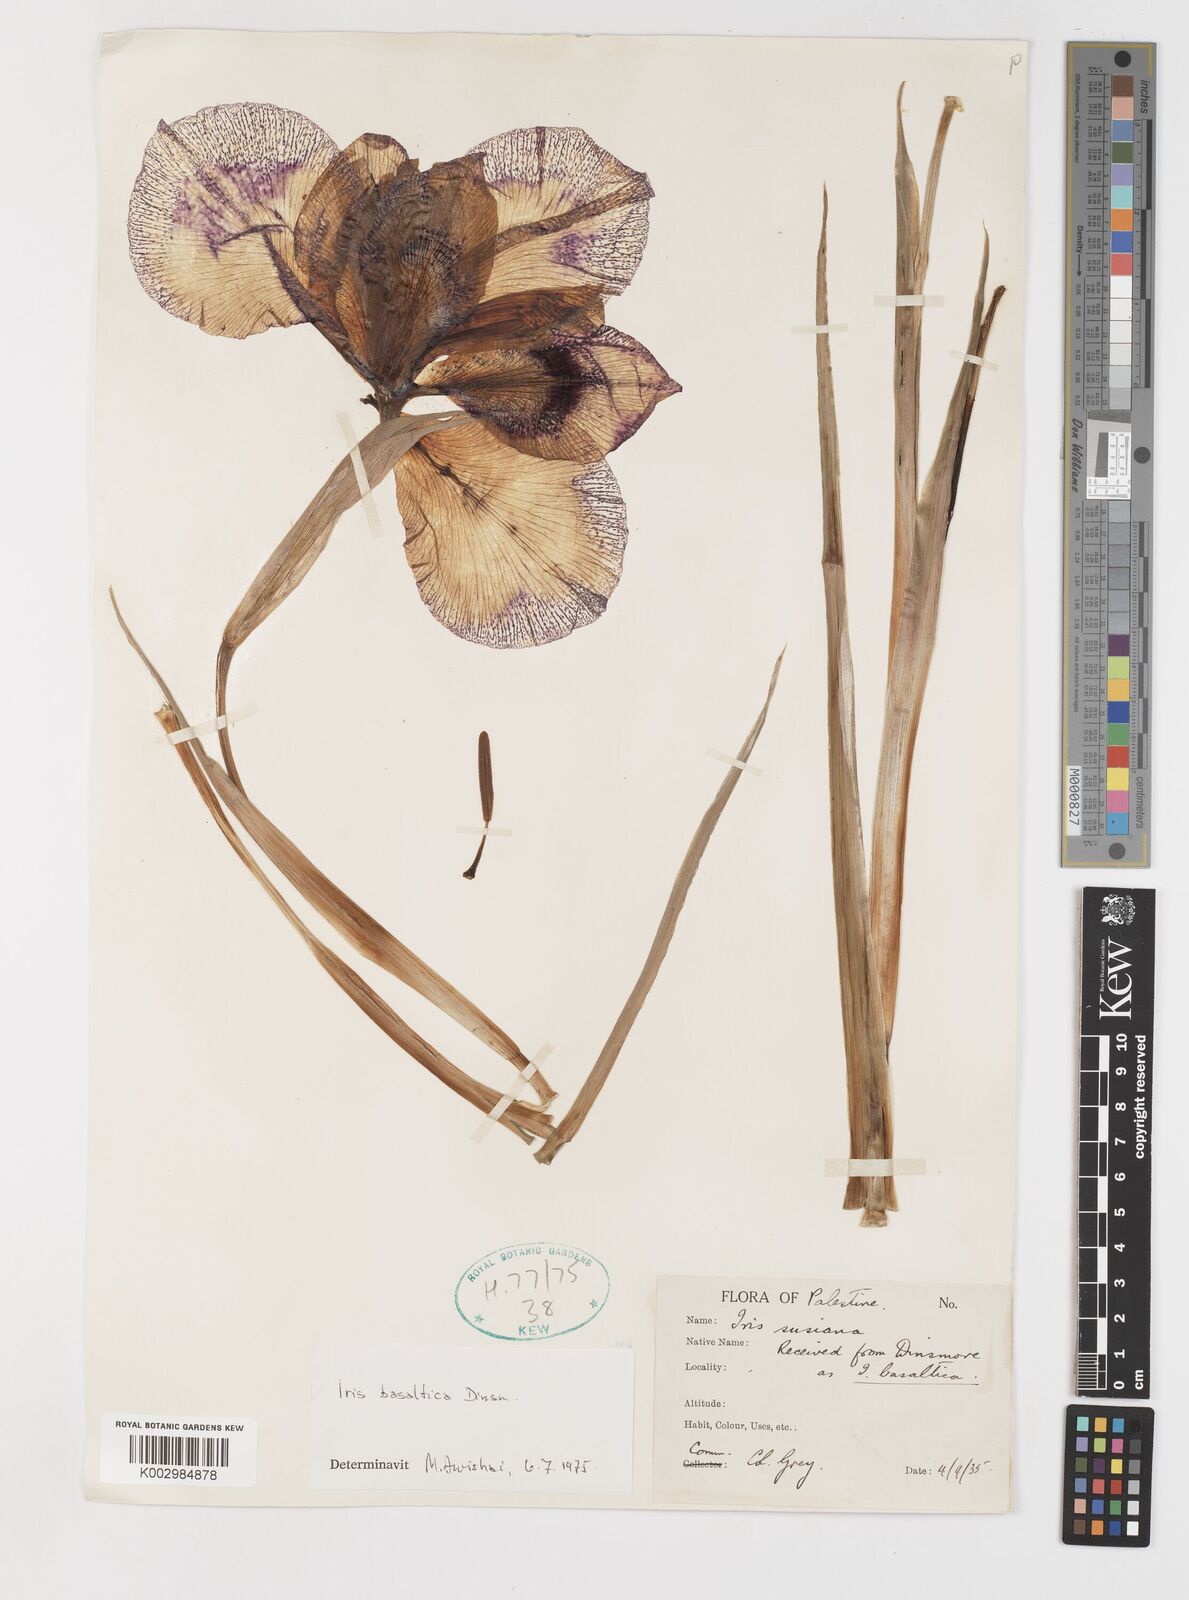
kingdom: Plantae
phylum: Tracheophyta
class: Liliopsida
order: Asparagales
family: Iridaceae
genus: Iris
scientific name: Iris basaltica
